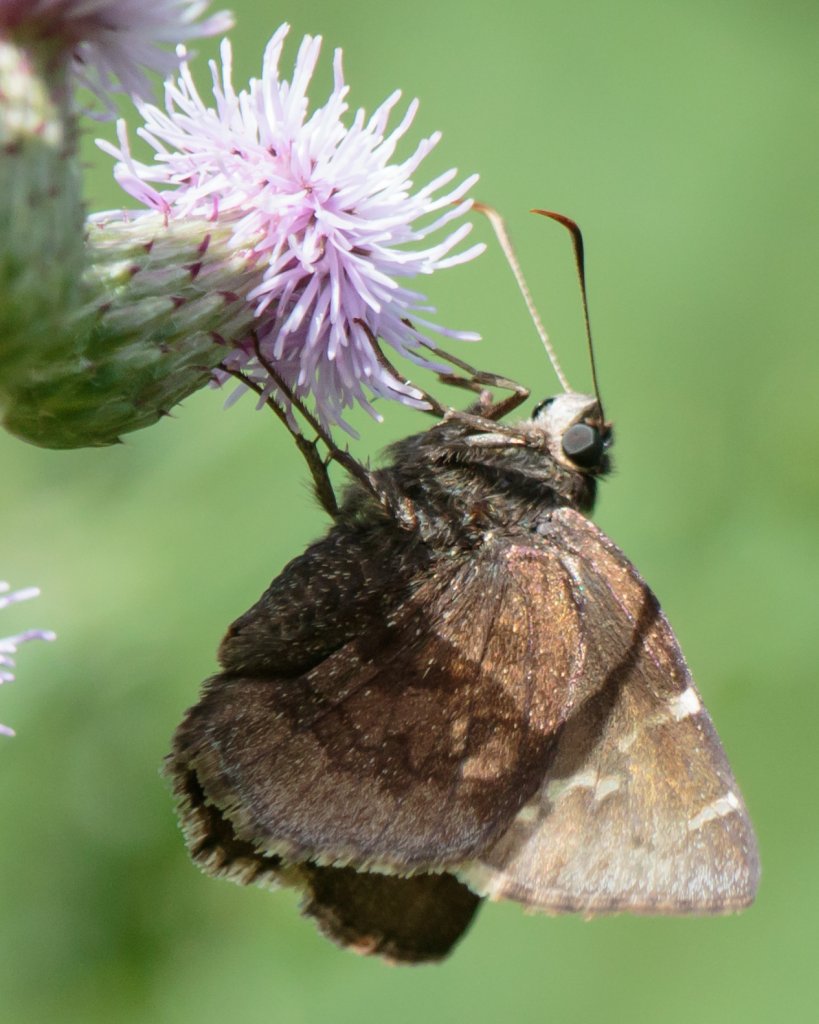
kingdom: Animalia
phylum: Arthropoda
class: Insecta
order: Lepidoptera
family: Hesperiidae
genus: Autochton
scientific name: Autochton
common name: Southern Cloudywing
